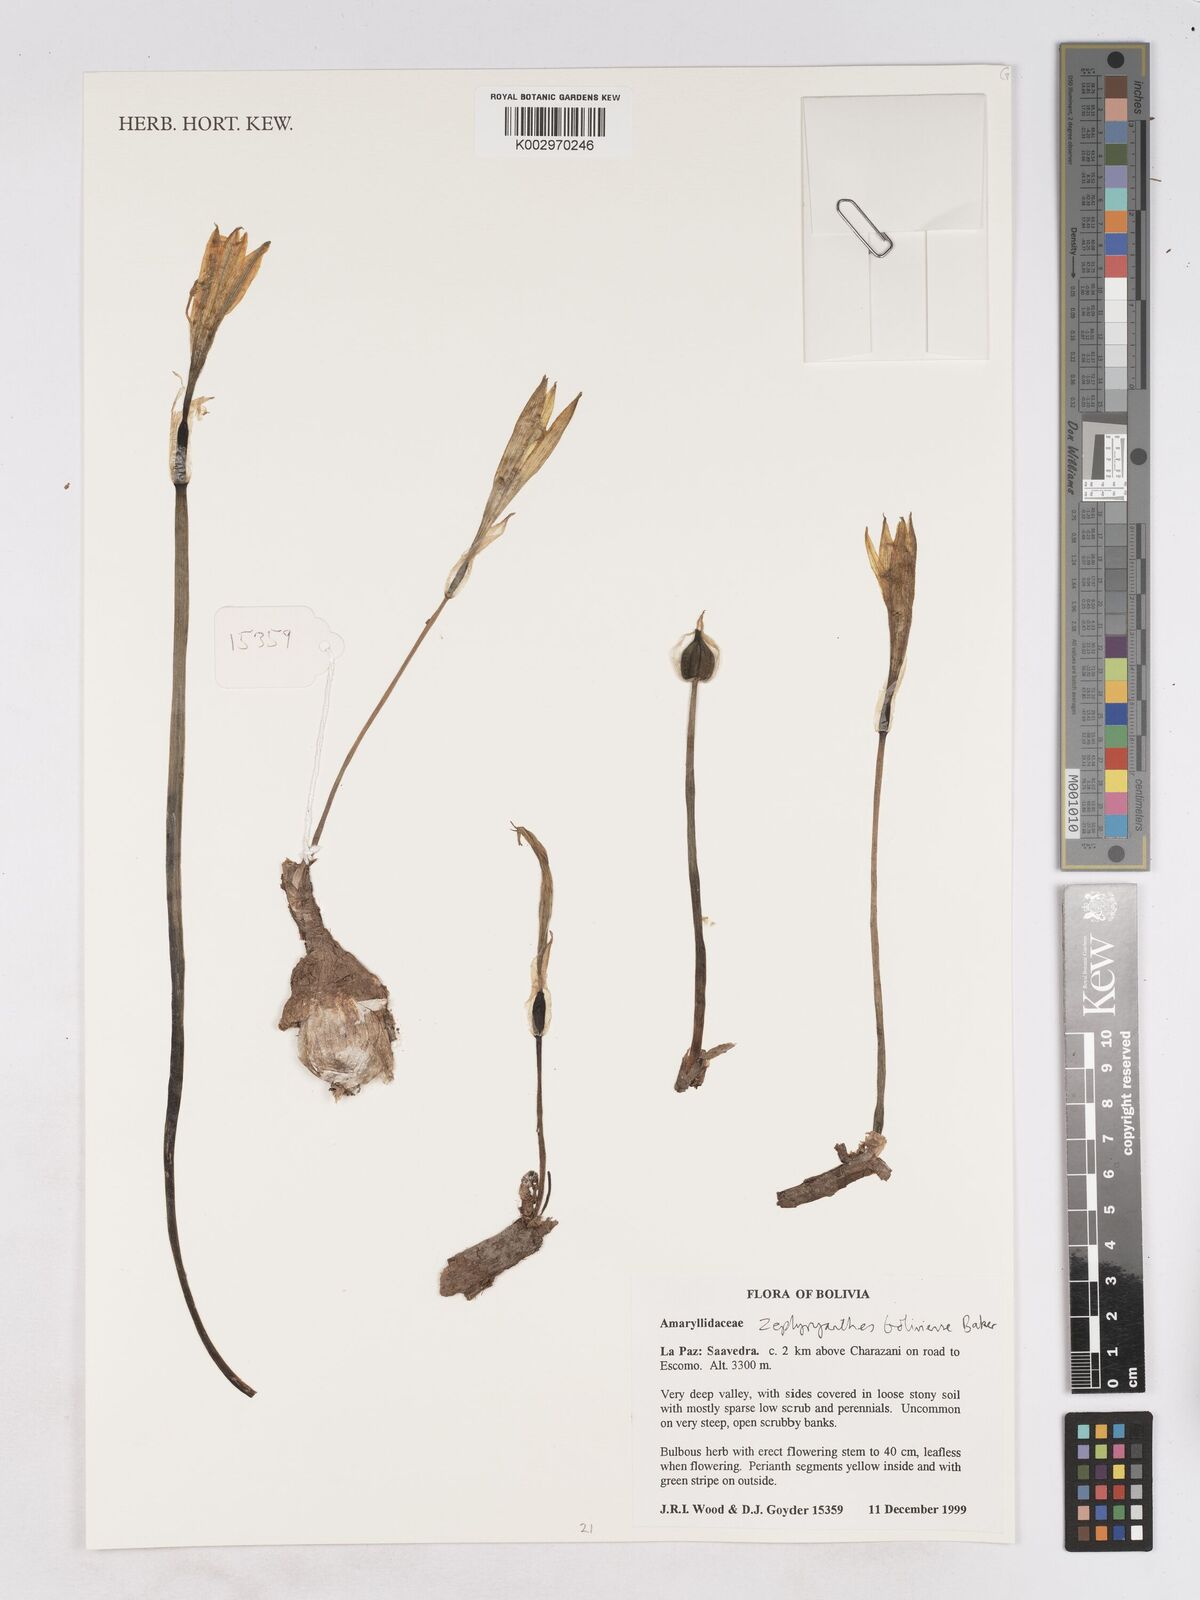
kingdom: Plantae
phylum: Tracheophyta
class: Liliopsida
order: Asparagales
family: Amaryllidaceae
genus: Pyrolirion
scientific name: Pyrolirion boliviense
